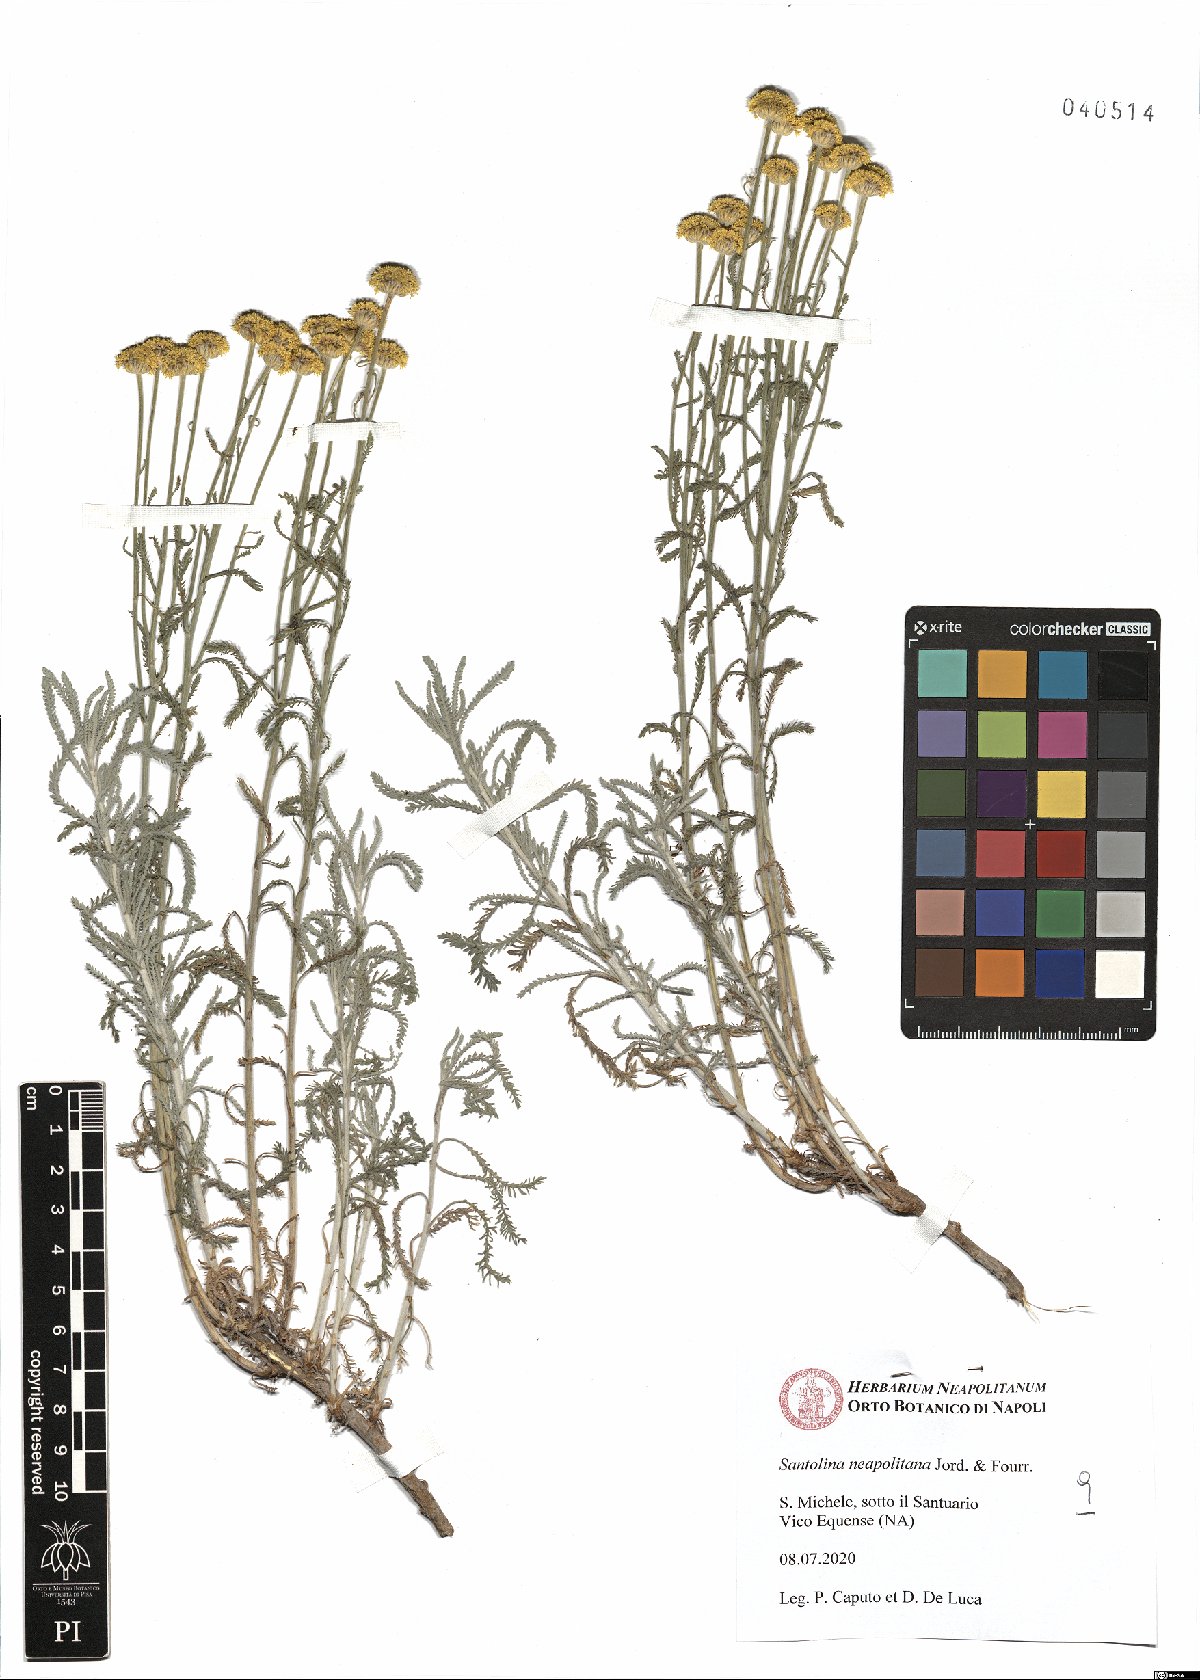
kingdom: Plantae
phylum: Tracheophyta
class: Magnoliopsida
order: Asterales
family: Asteraceae
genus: Santolina
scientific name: Santolina neapolitana
